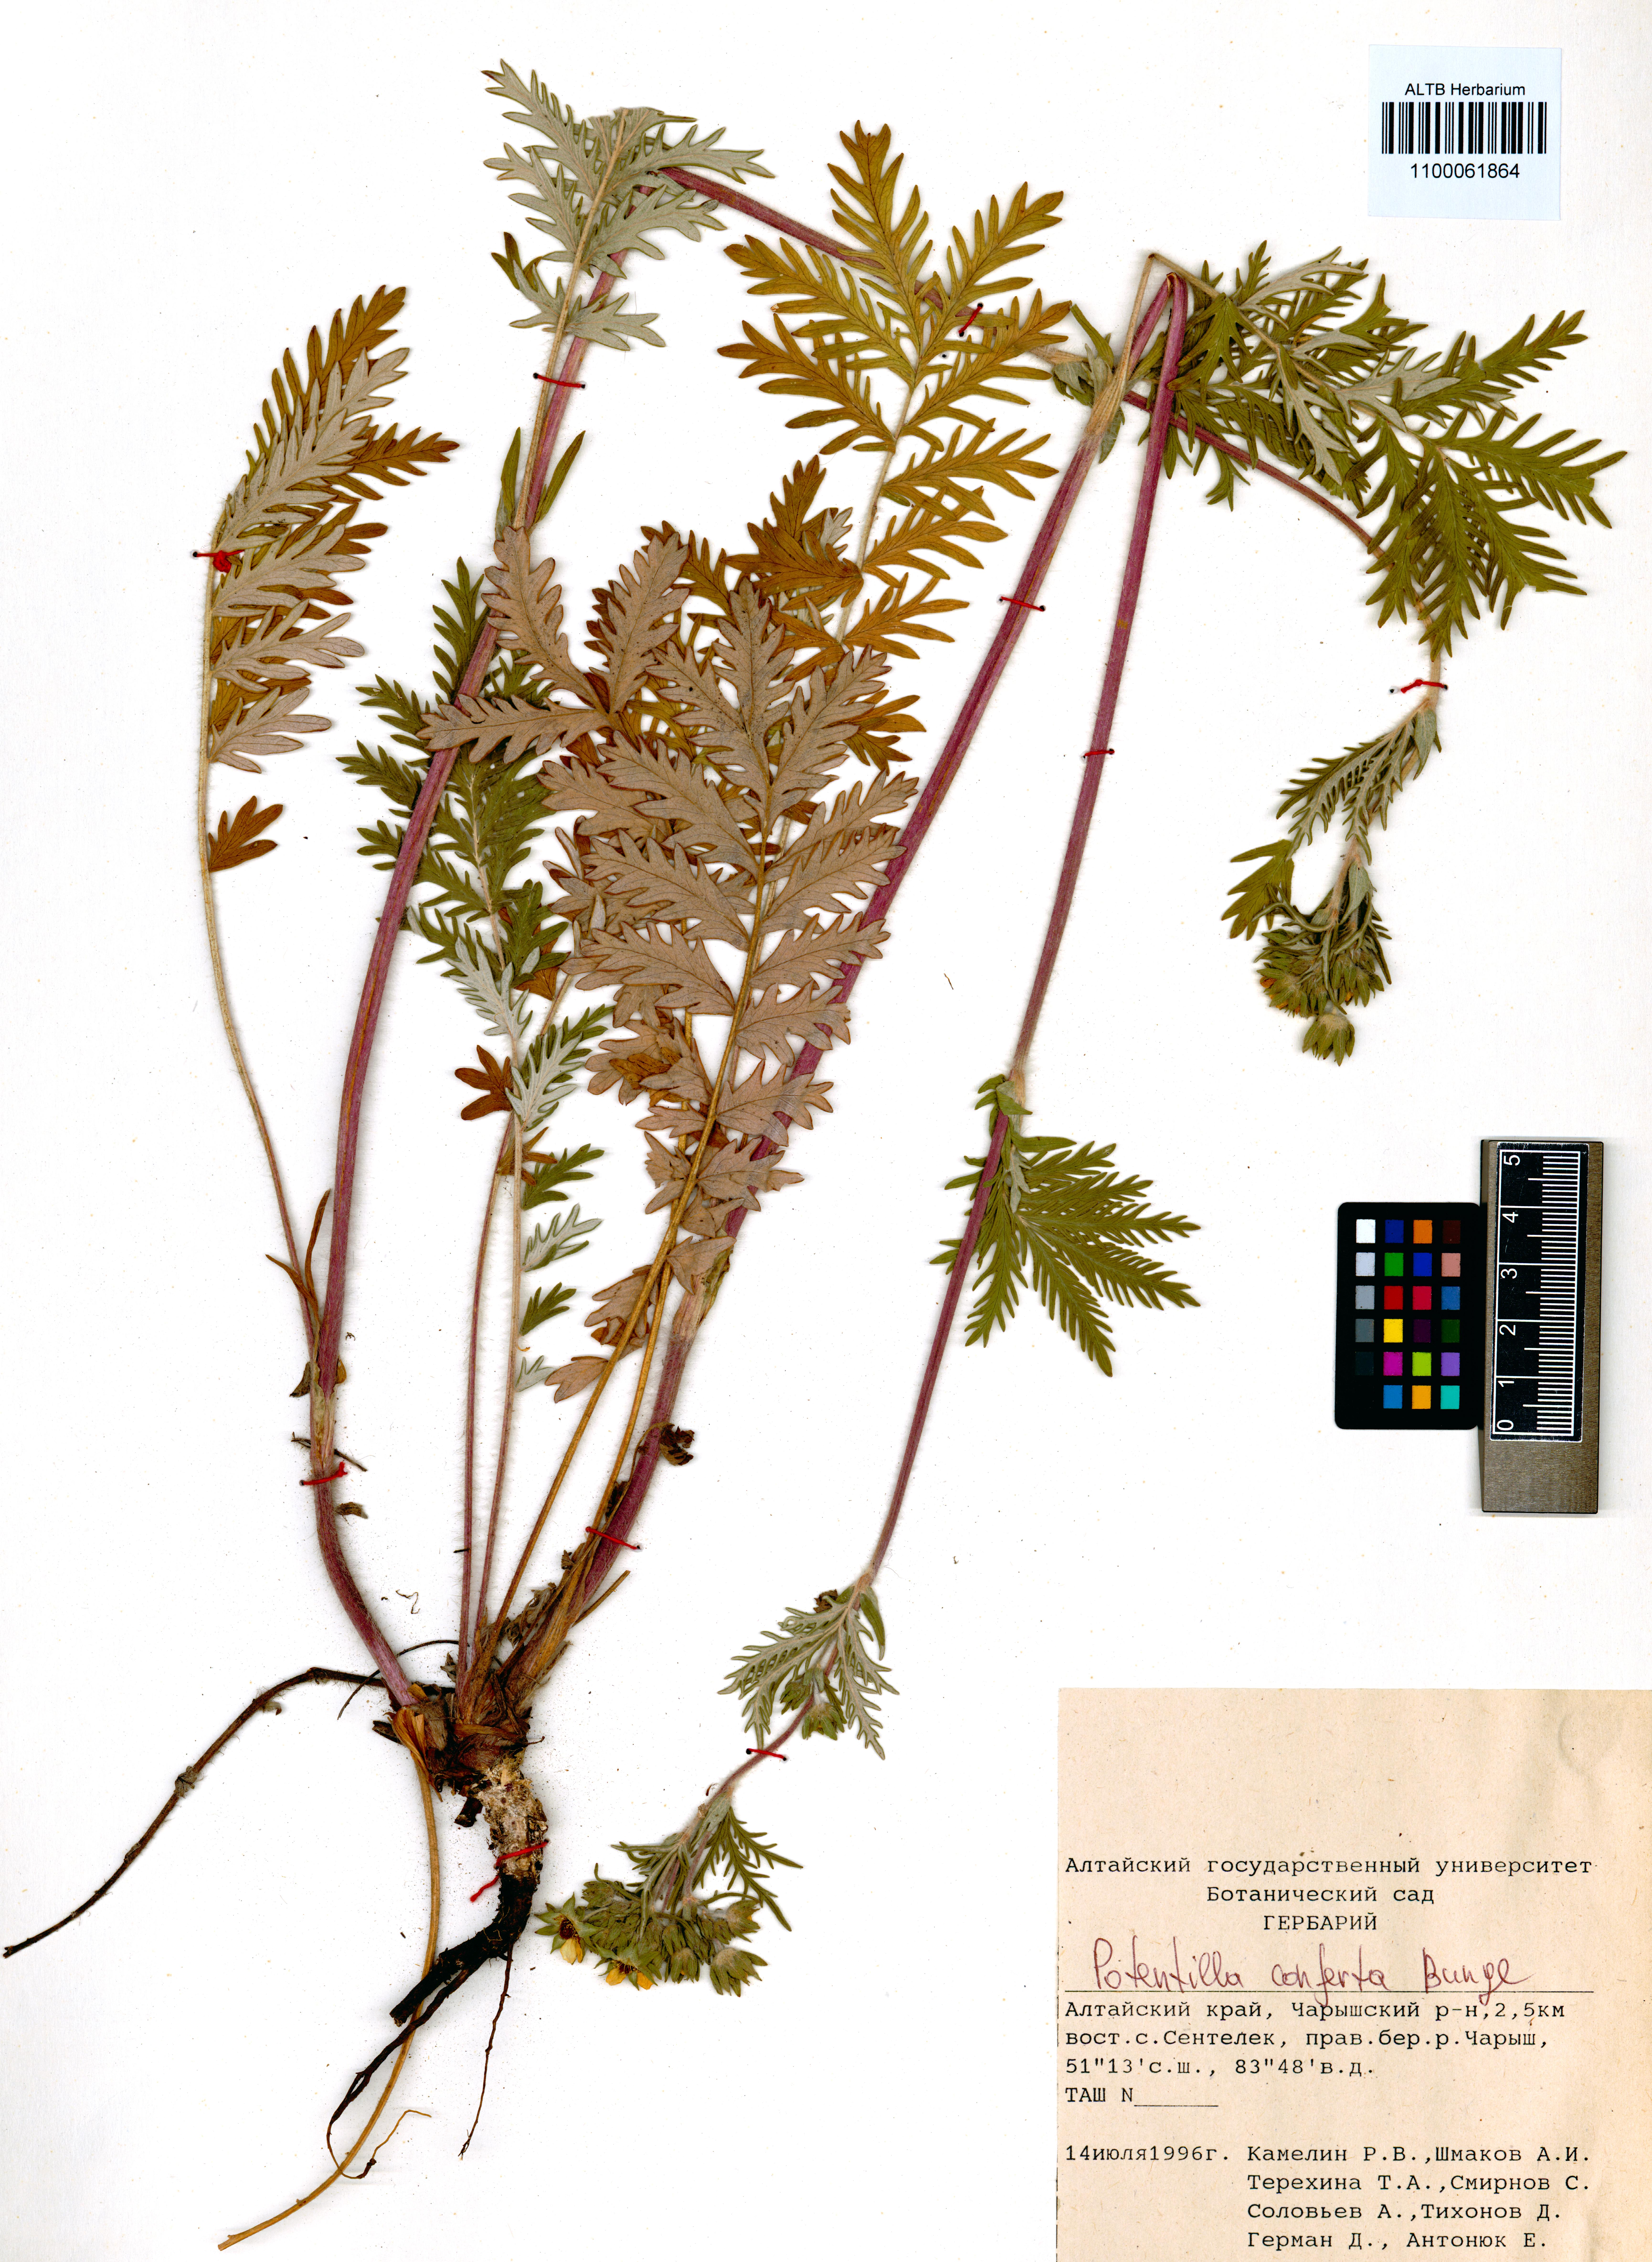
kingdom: Plantae
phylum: Tracheophyta
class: Magnoliopsida
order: Rosales
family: Rosaceae
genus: Potentilla
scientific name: Potentilla conferta
